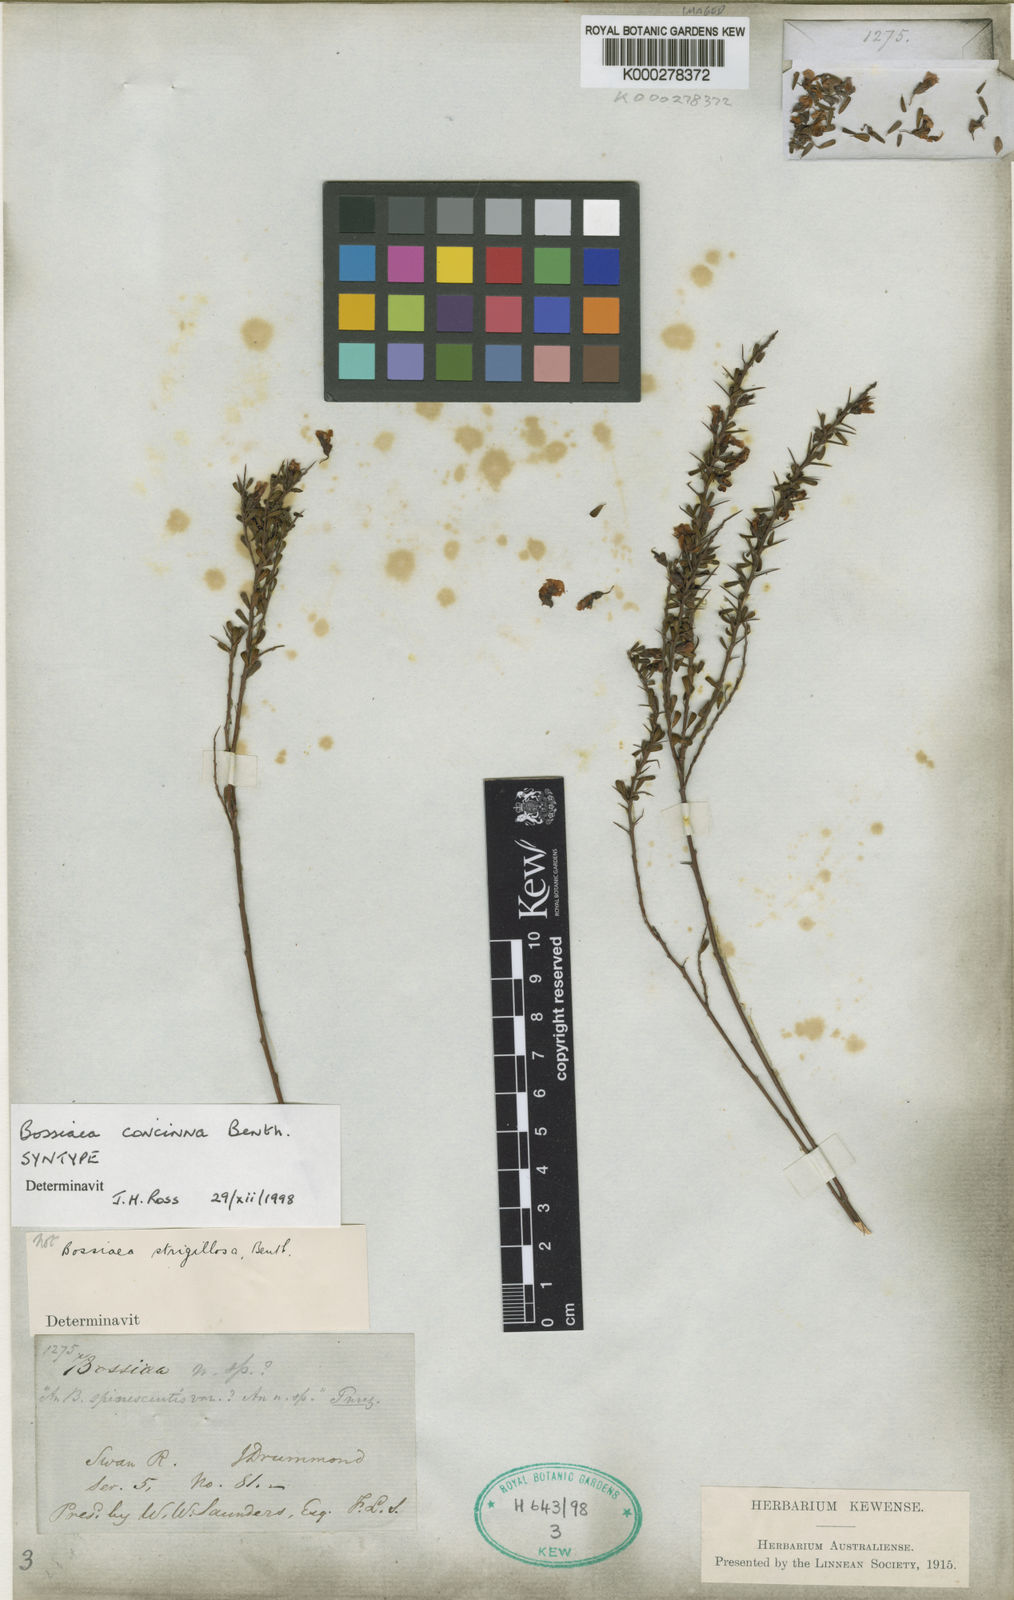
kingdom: Plantae
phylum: Tracheophyta
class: Magnoliopsida
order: Fabales
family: Fabaceae
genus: Bossiaea
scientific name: Bossiaea concinna
